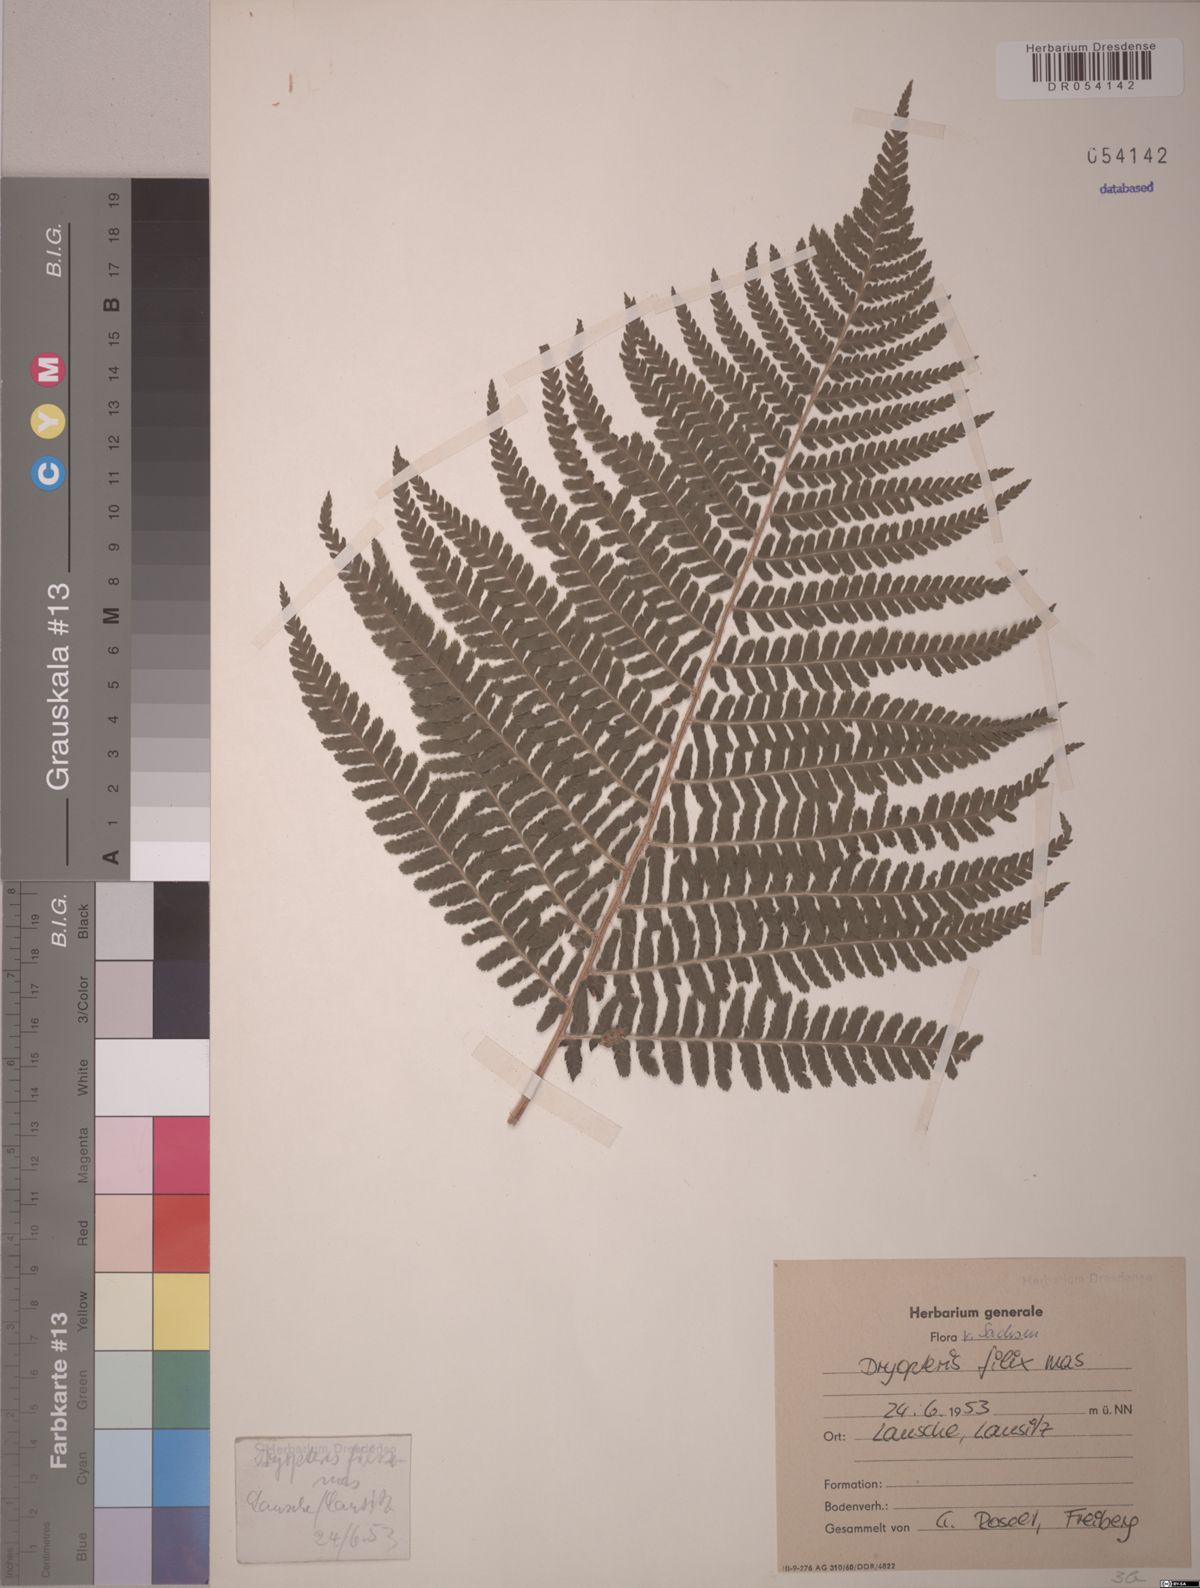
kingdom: Plantae
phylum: Tracheophyta
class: Polypodiopsida
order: Polypodiales
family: Dryopteridaceae
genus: Dryopteris
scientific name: Dryopteris filix-mas
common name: Male fern
